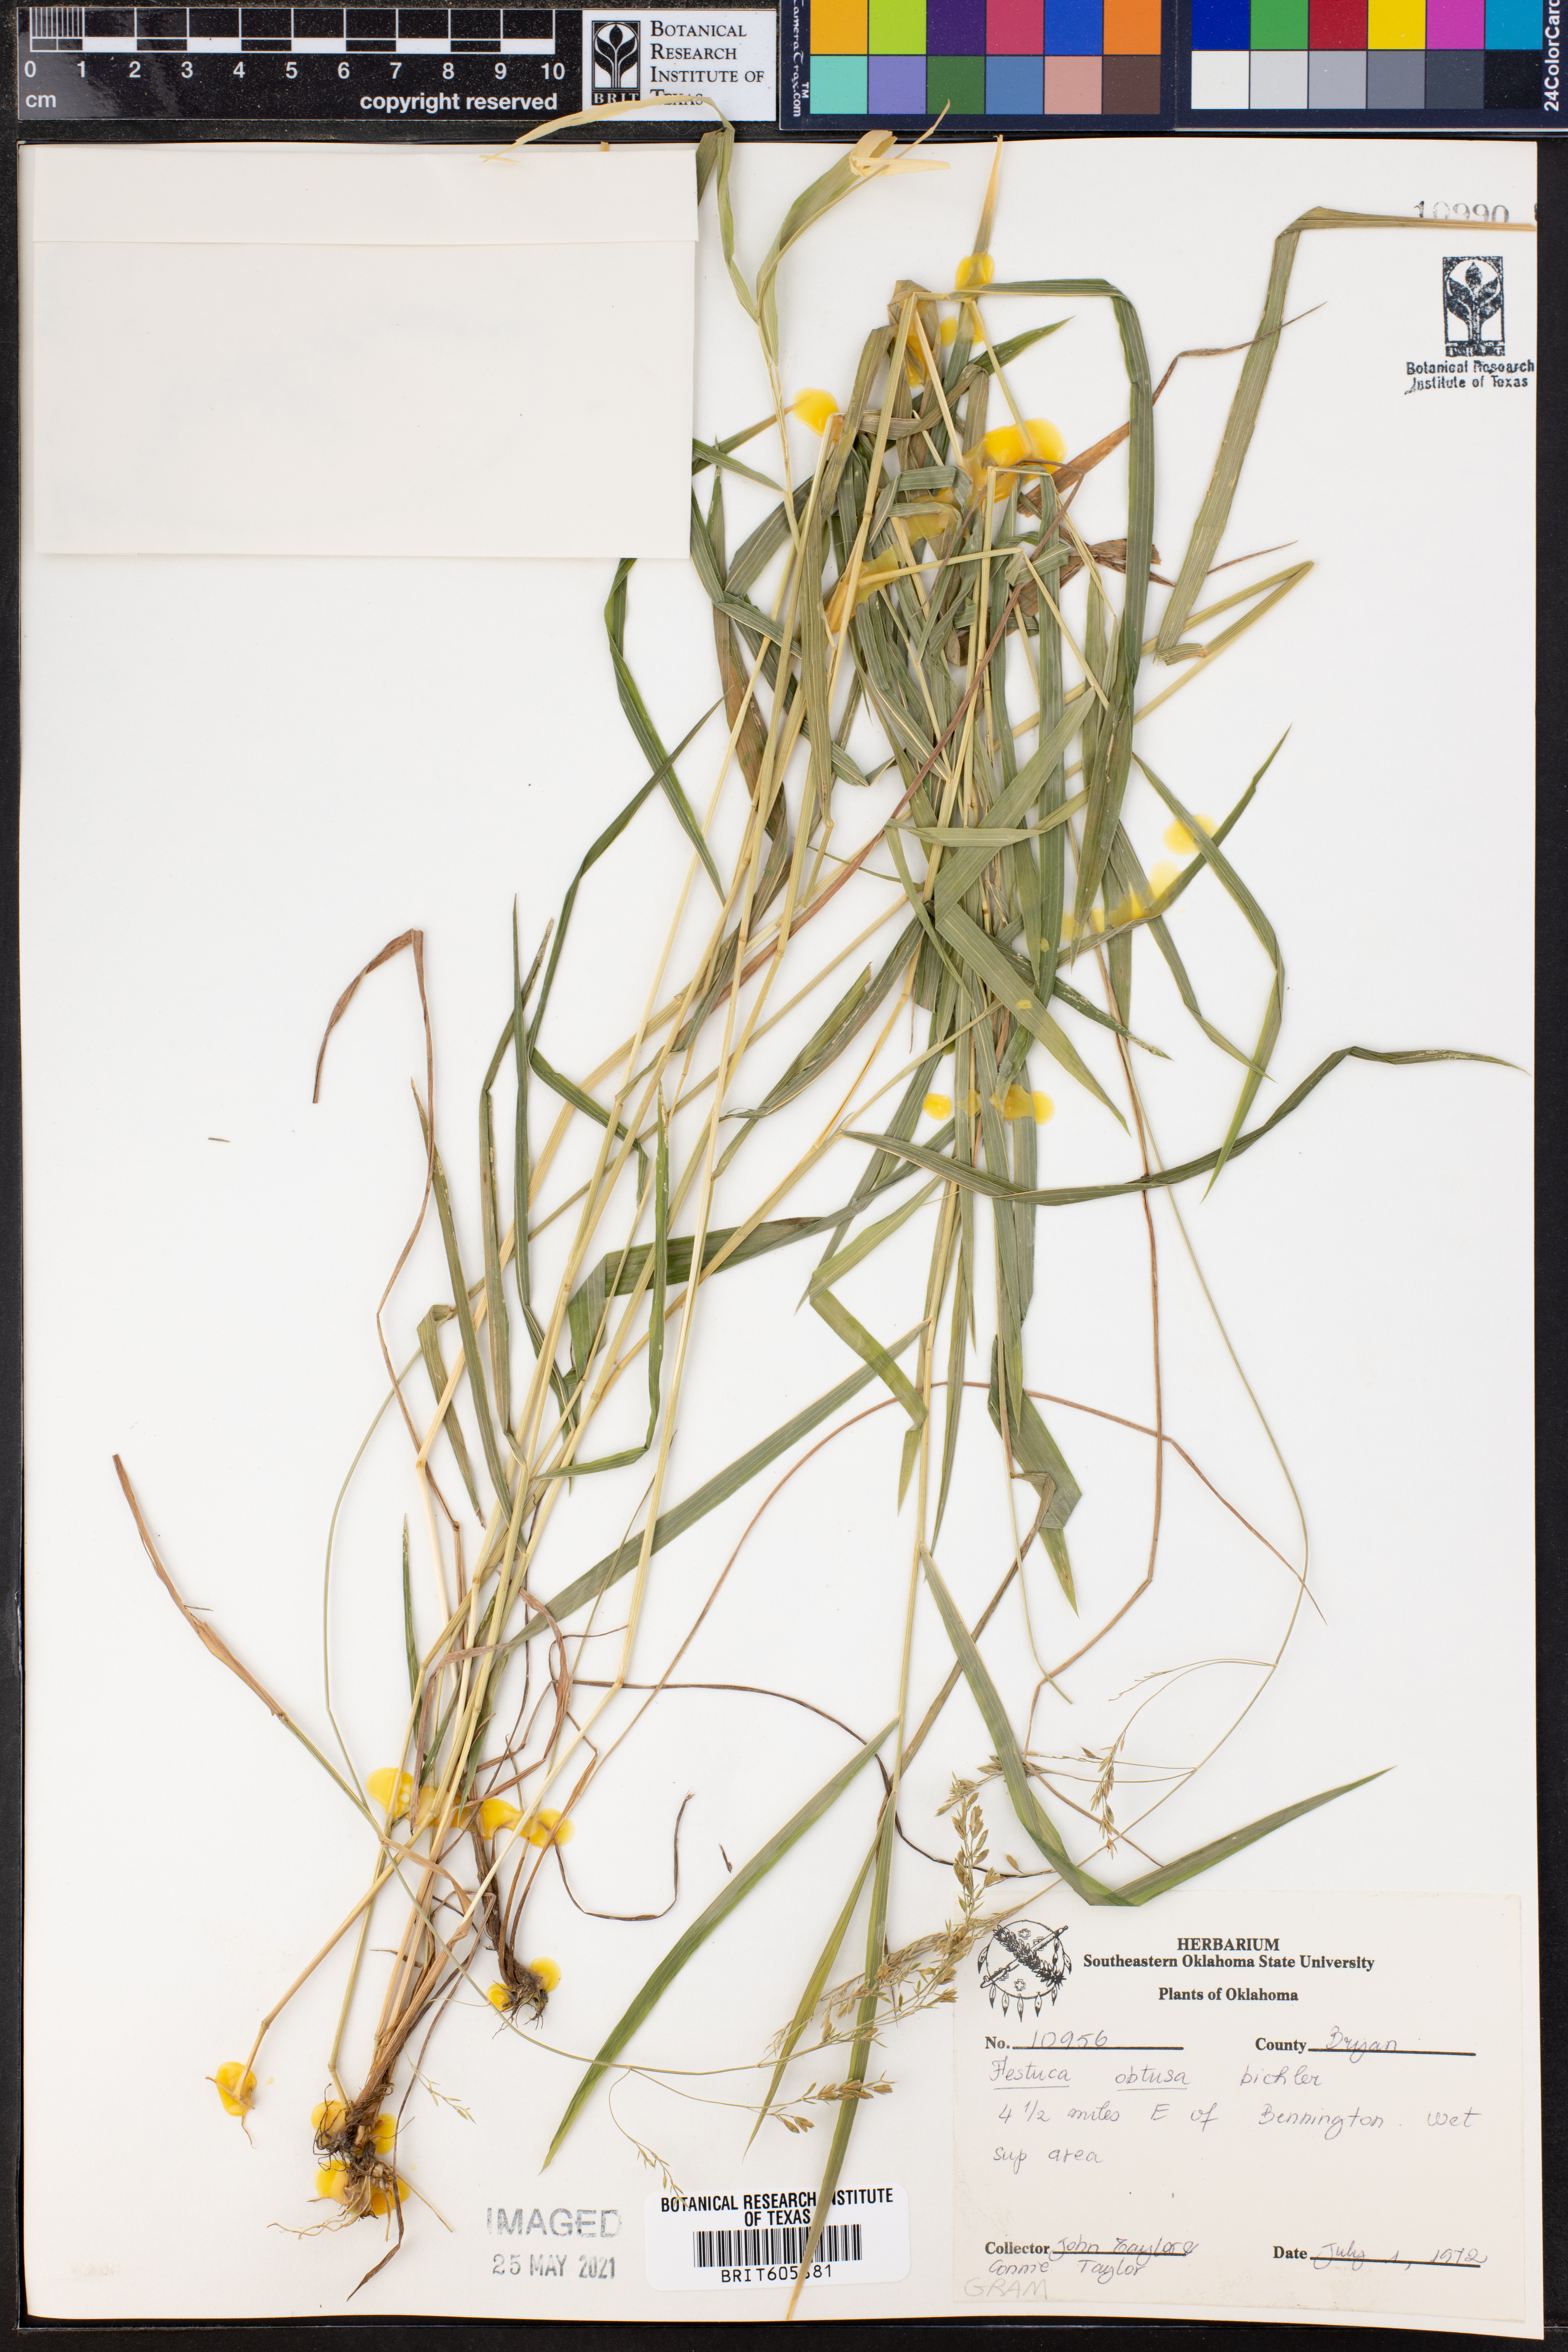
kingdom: Plantae
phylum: Tracheophyta
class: Liliopsida
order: Poales
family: Poaceae
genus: Festuca
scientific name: Festuca subverticillata
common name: Nodding fescue
